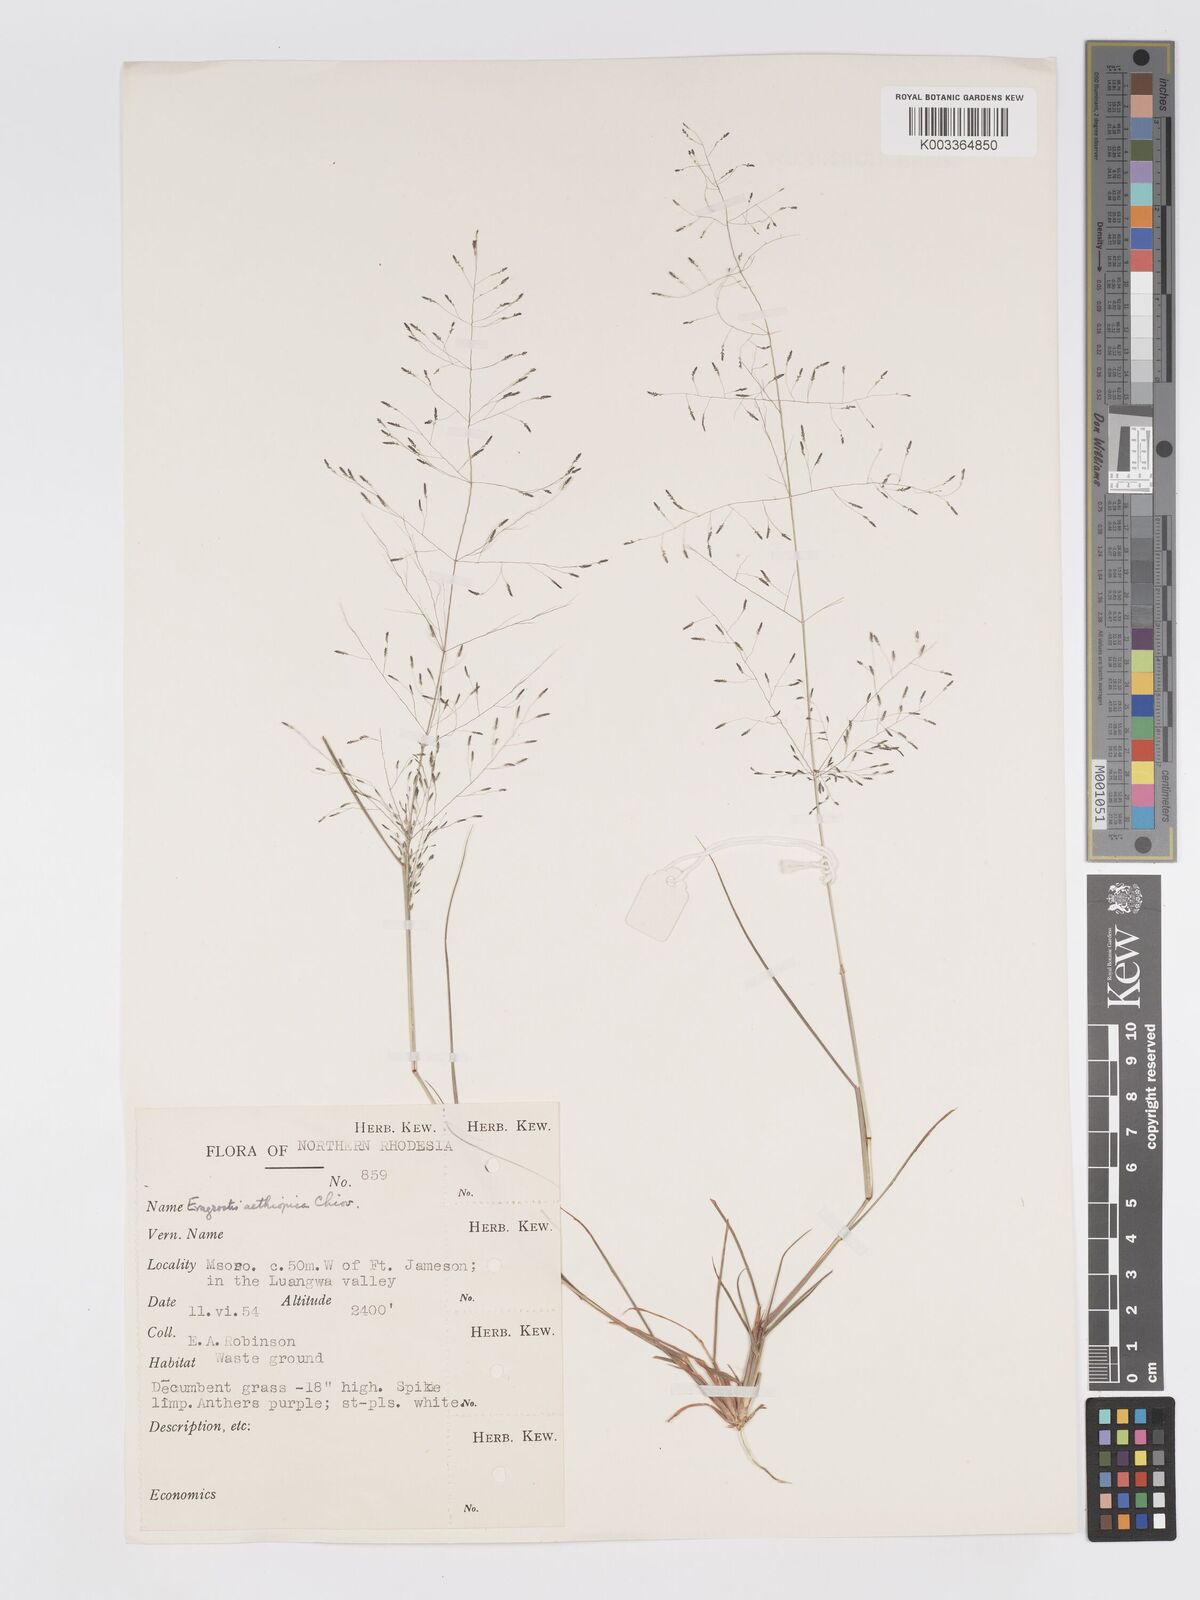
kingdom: Plantae
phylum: Tracheophyta
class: Liliopsida
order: Poales
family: Poaceae
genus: Eragrostis
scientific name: Eragrostis aethiopica
